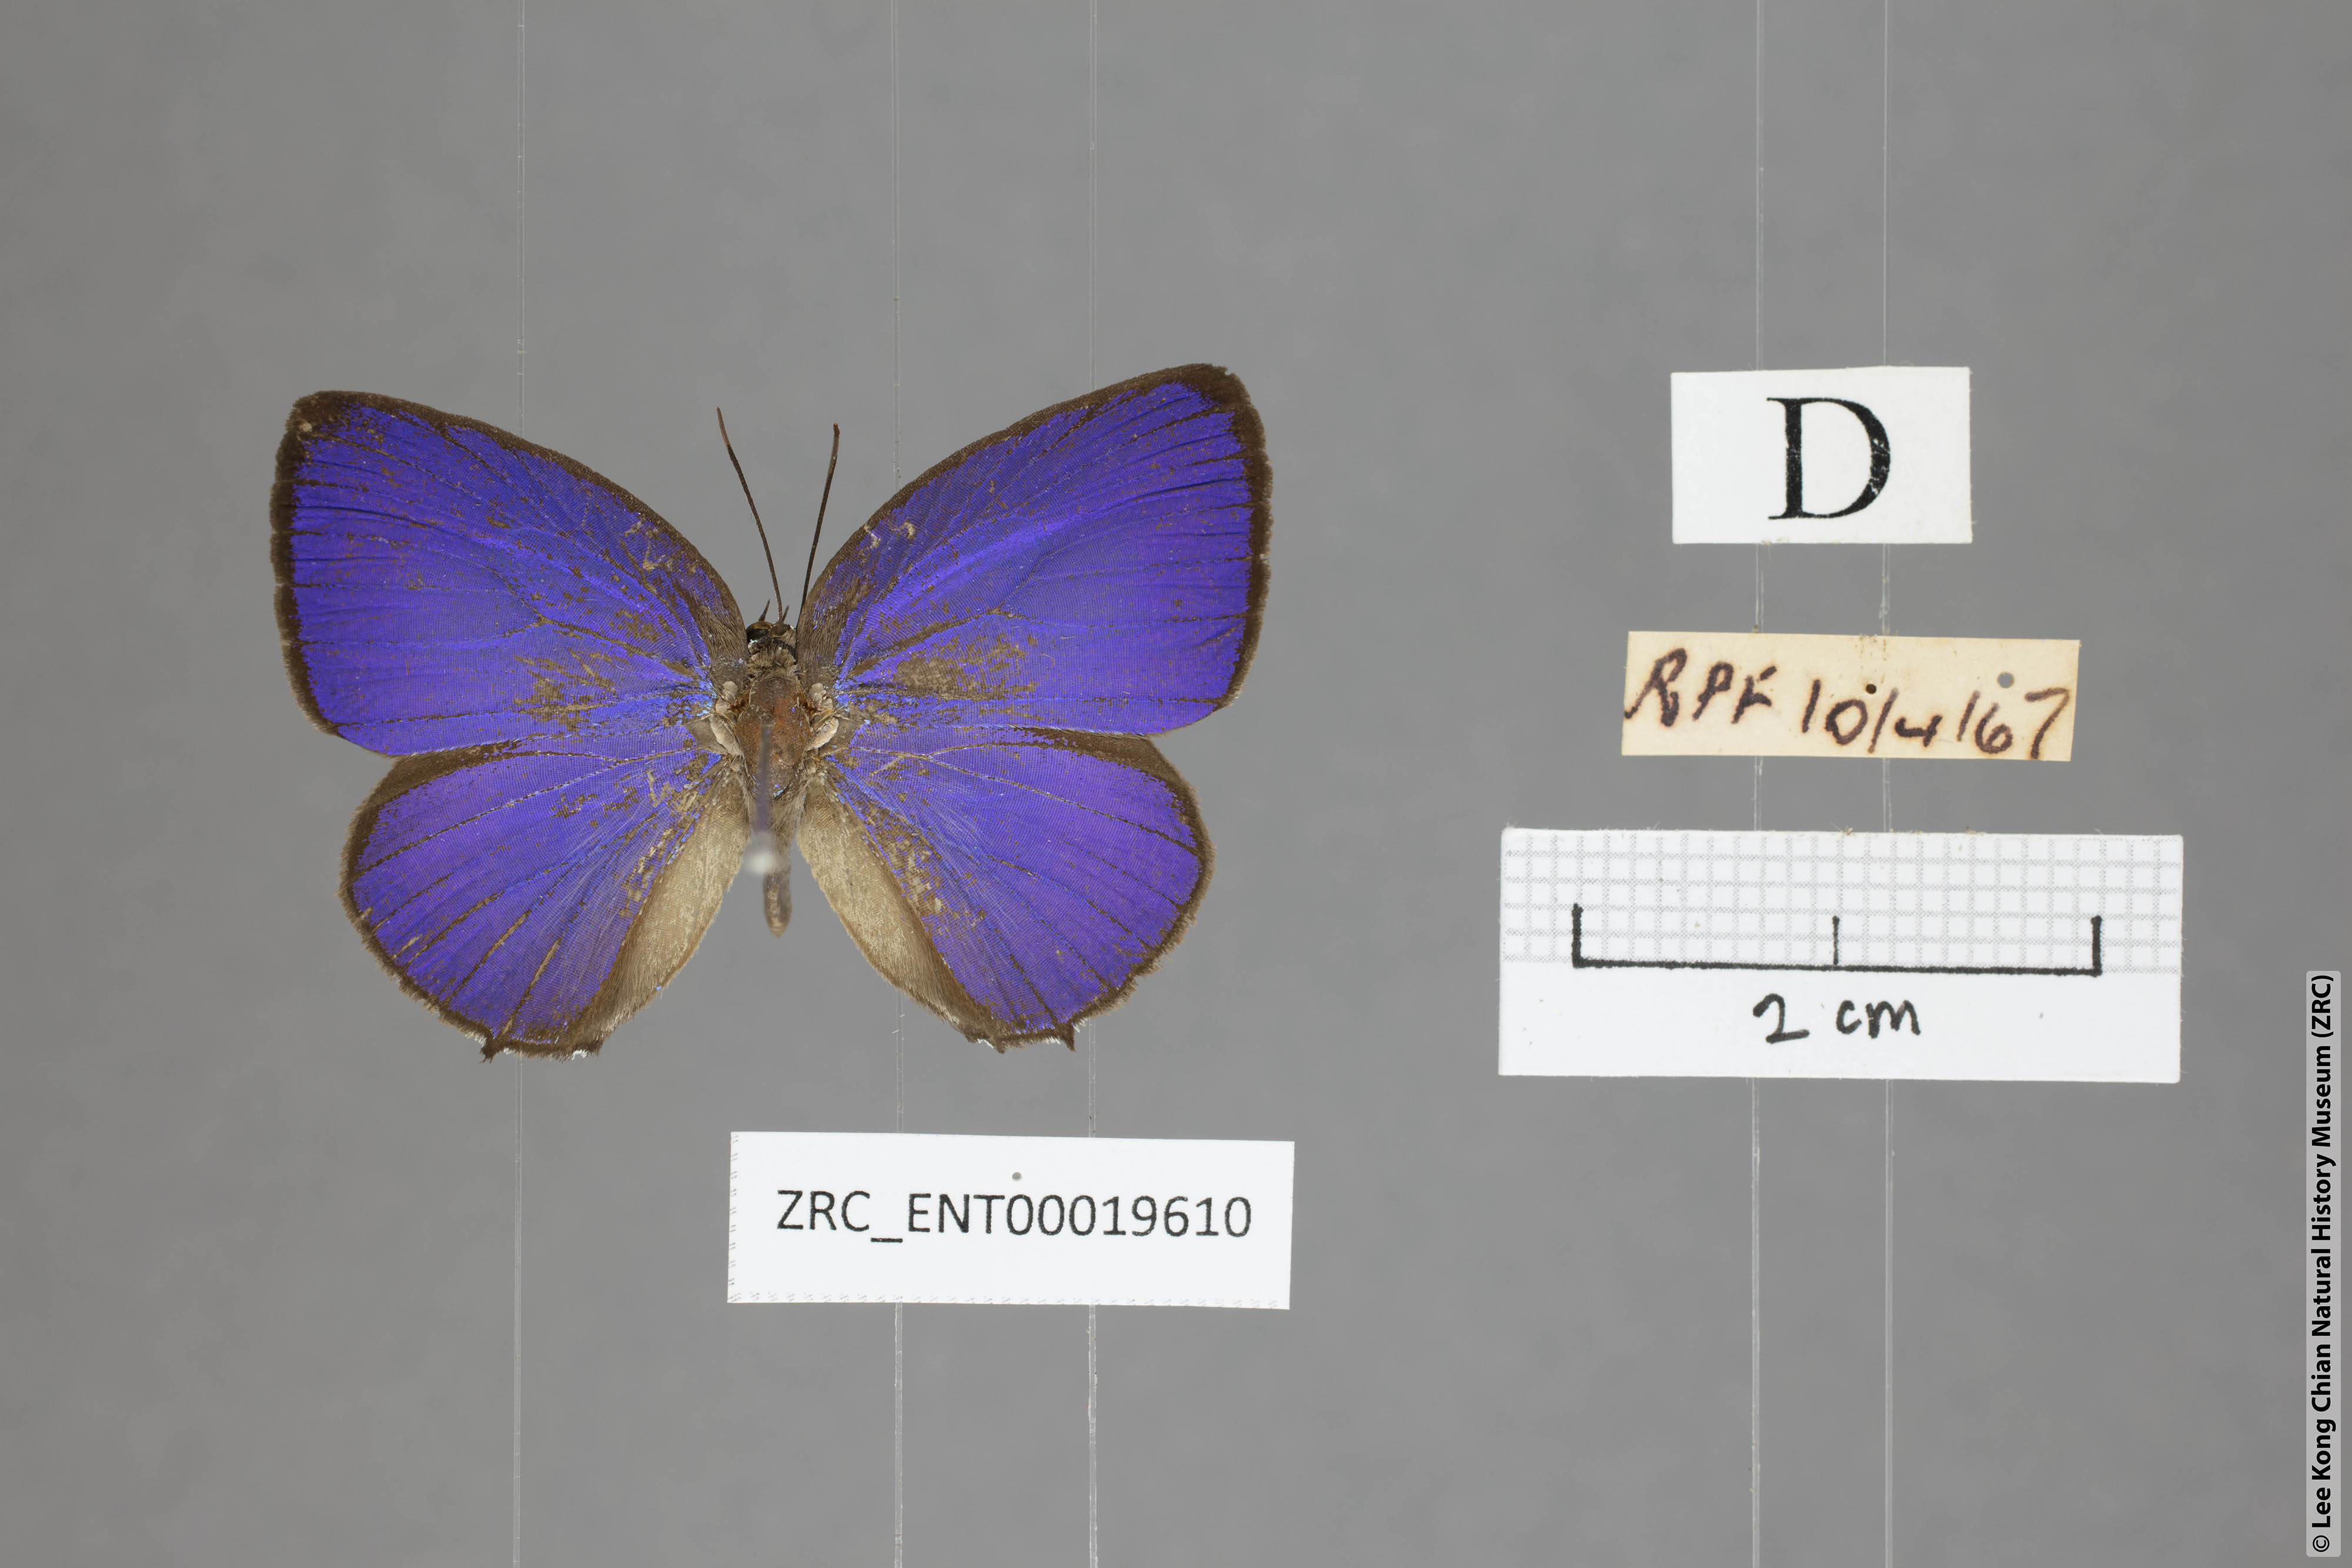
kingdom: Animalia
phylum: Arthropoda
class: Insecta
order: Lepidoptera
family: Lycaenidae
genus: Arhopala
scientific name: Arhopala atosia
